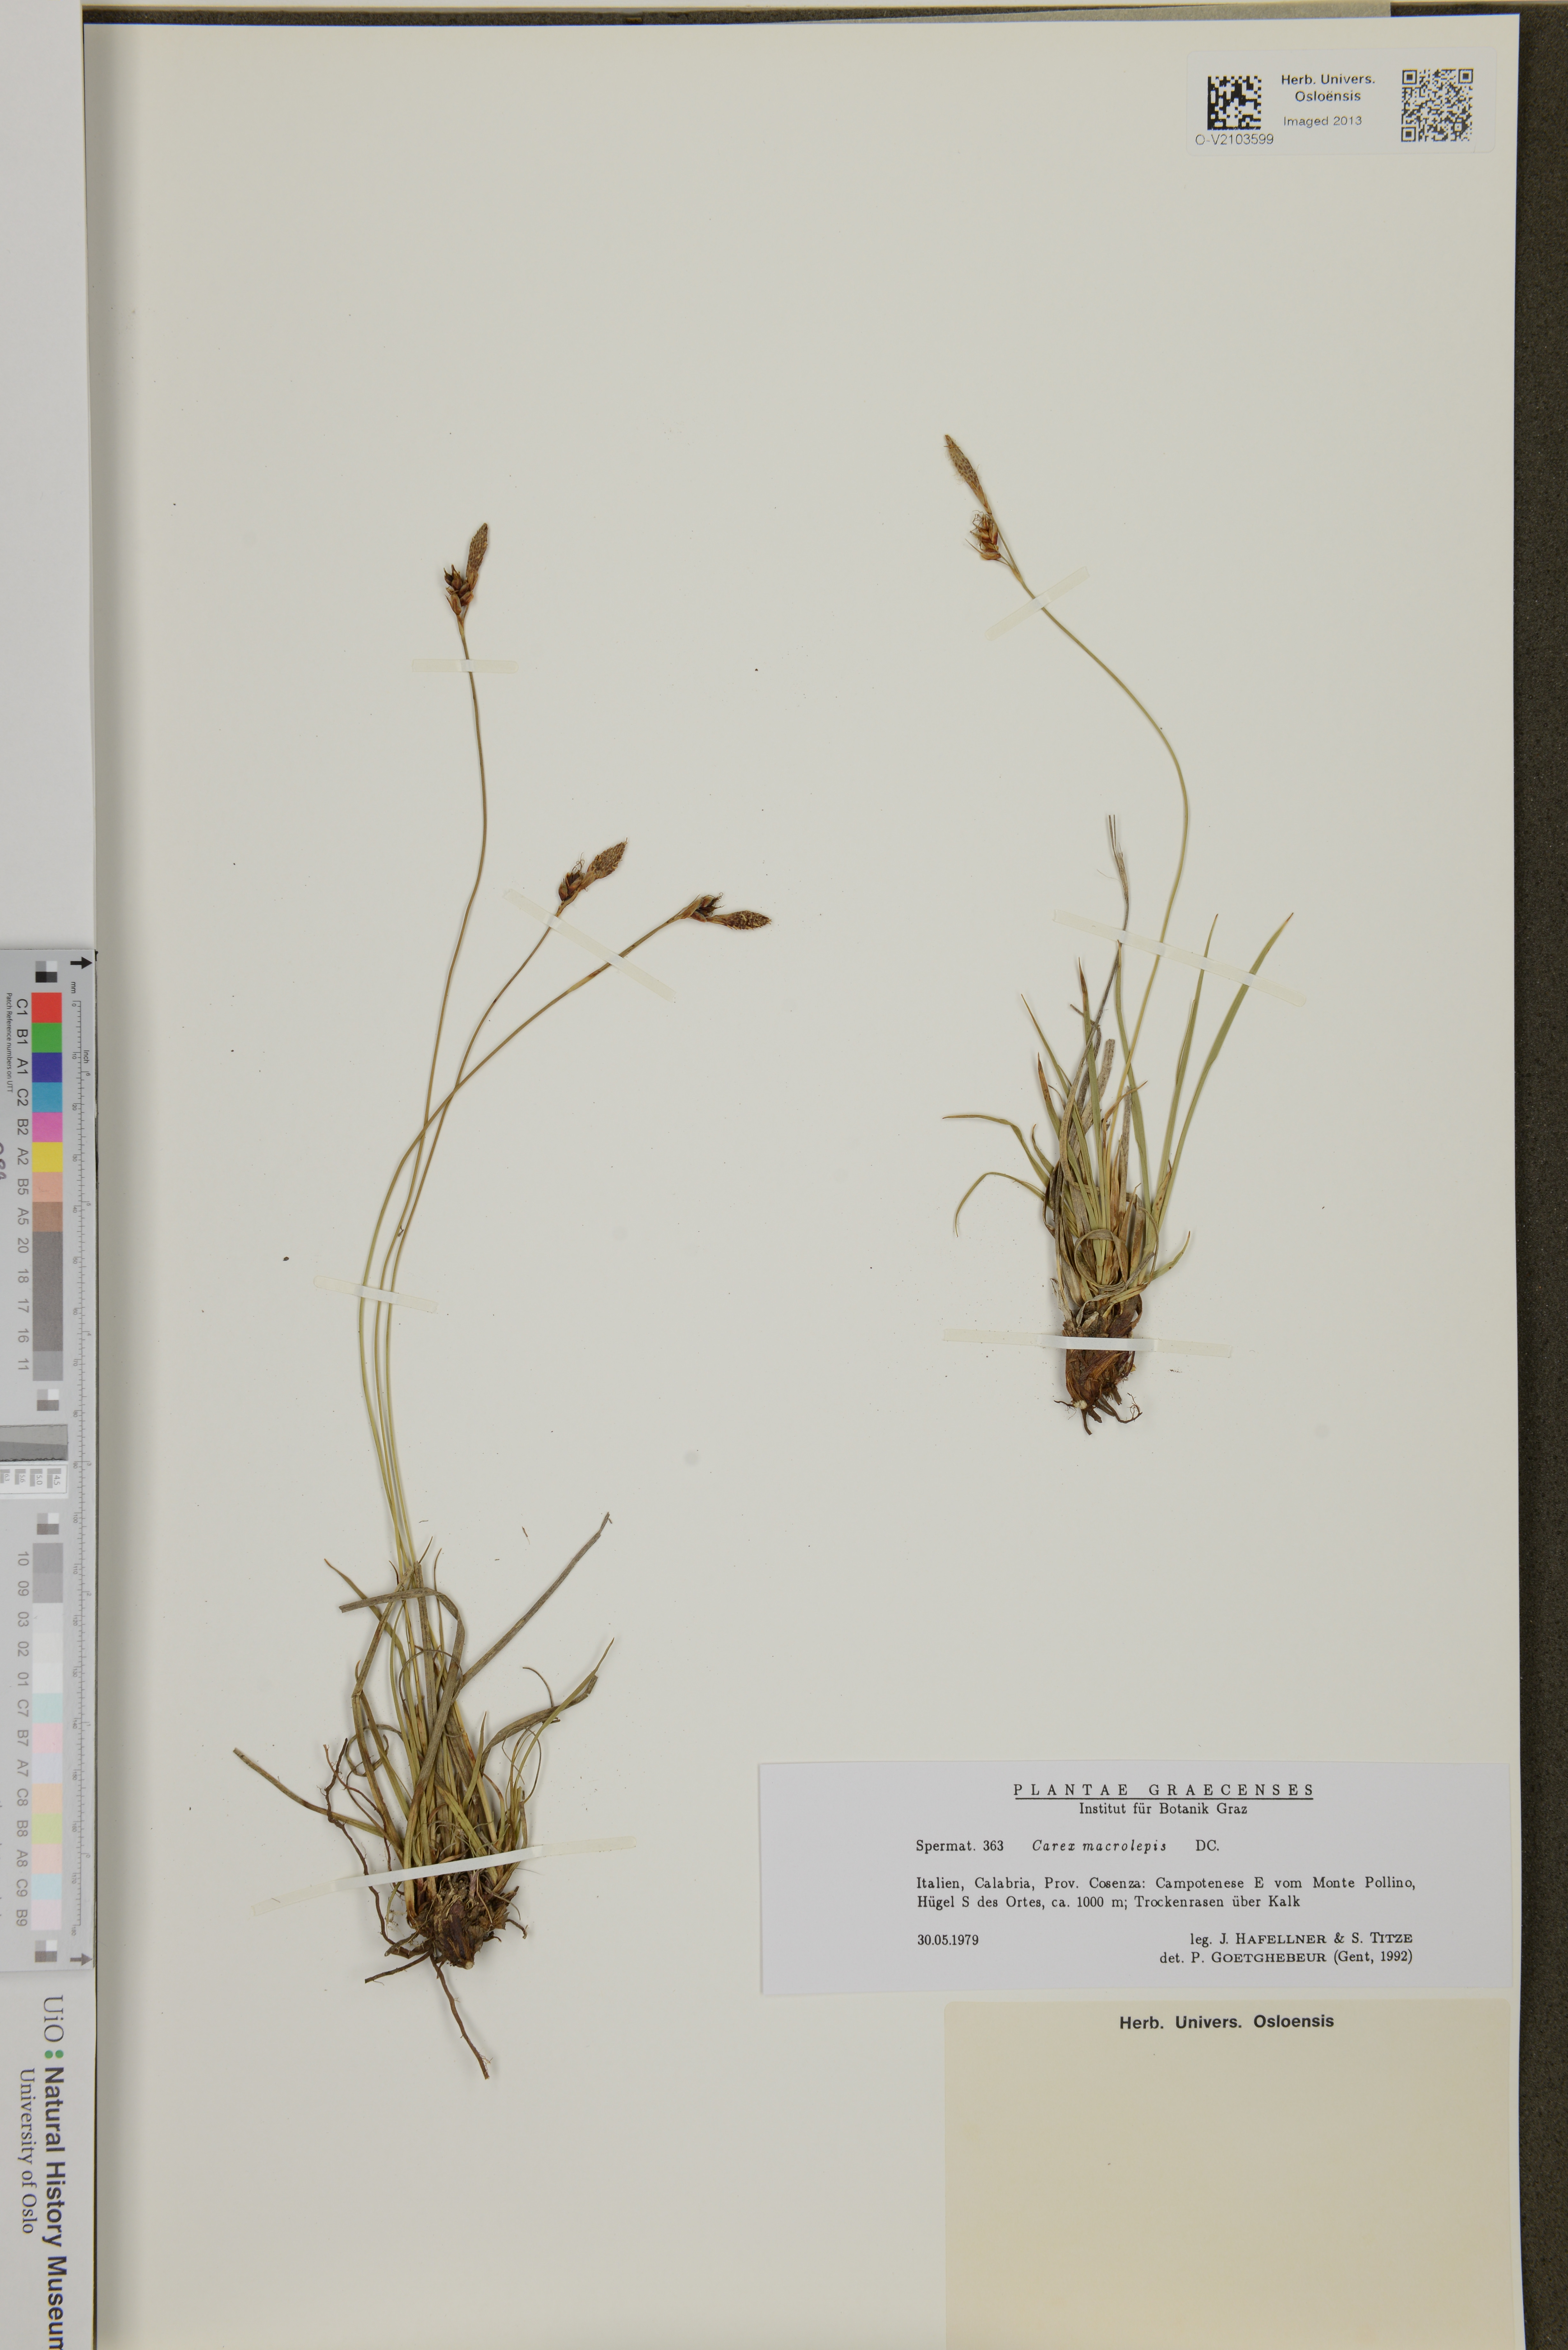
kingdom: Plantae
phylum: Tracheophyta
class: Liliopsida
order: Poales
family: Cyperaceae
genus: Carex
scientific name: Carex macrolepis
